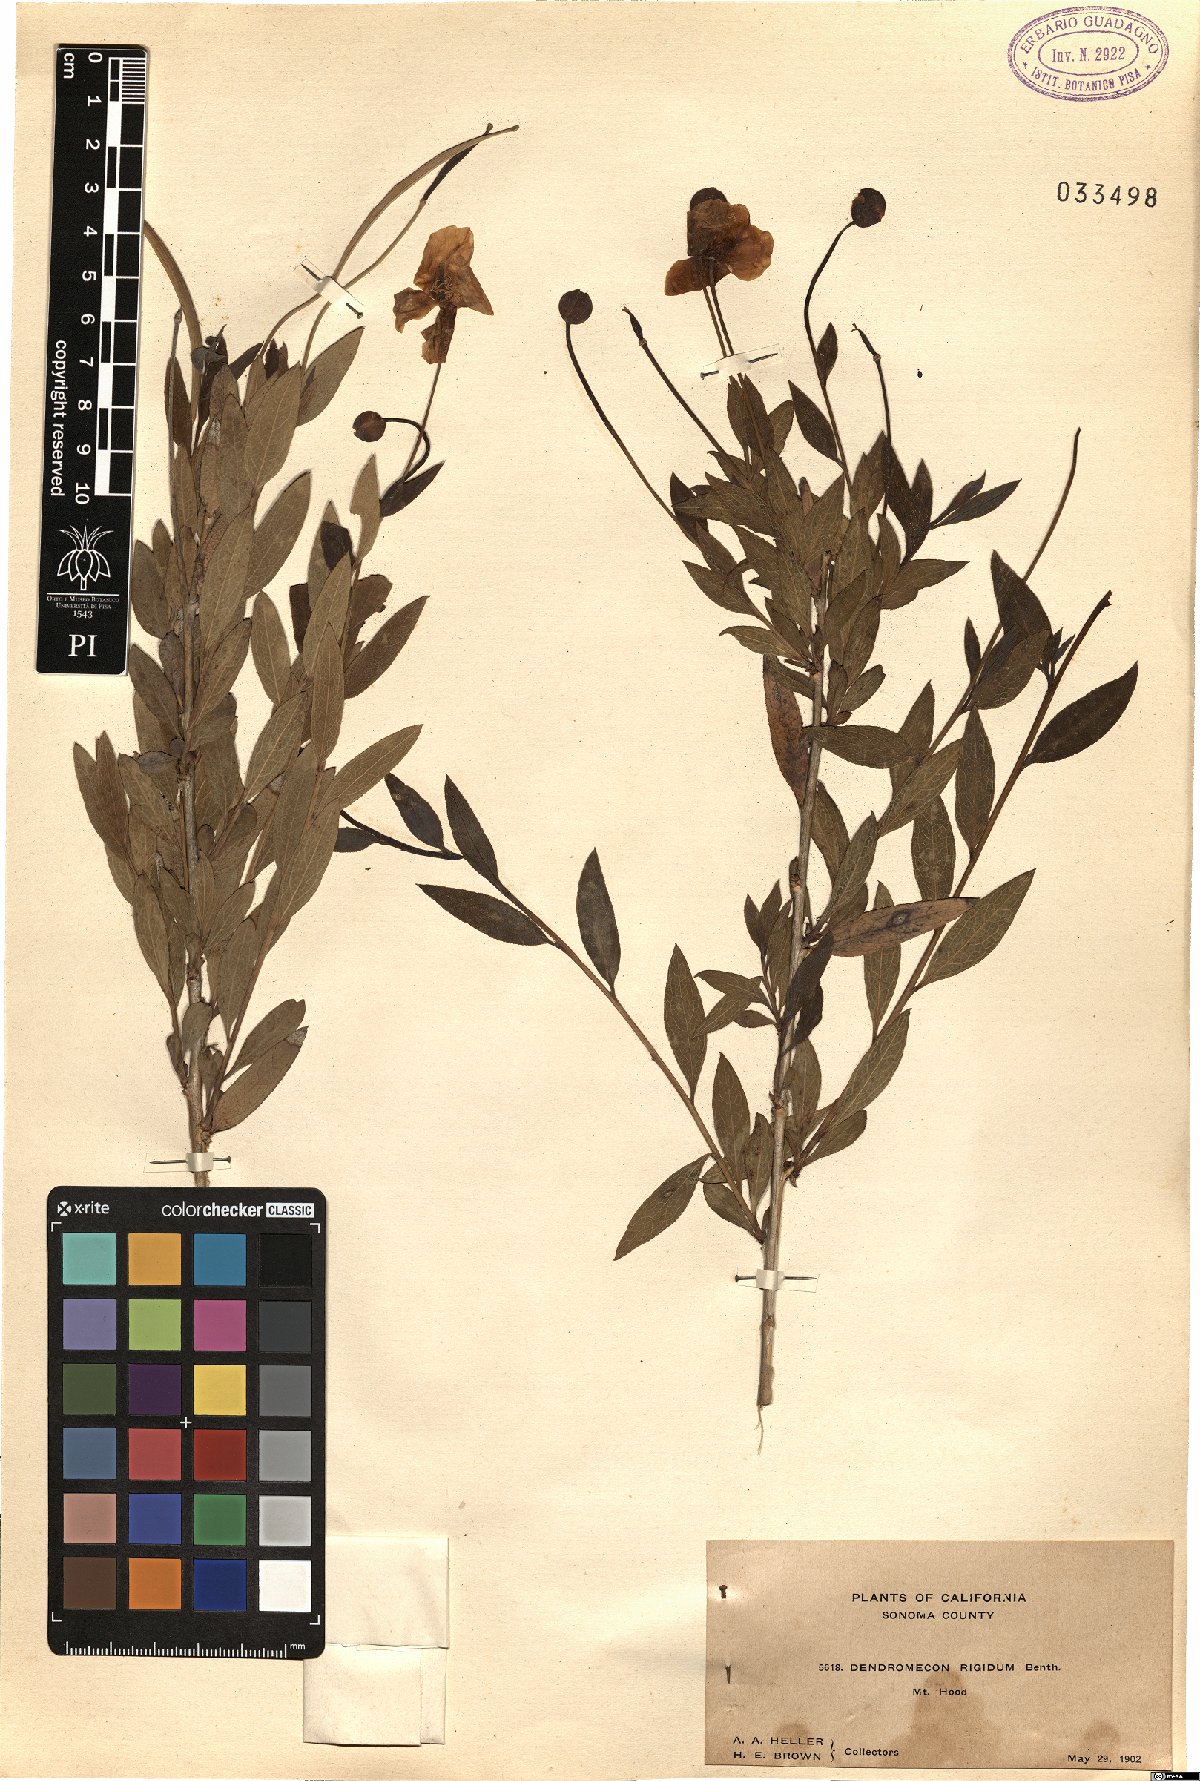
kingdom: Plantae
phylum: Tracheophyta
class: Magnoliopsida
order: Ranunculales
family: Papaveraceae
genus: Dendromecon
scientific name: Dendromecon rigida
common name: Tree poppy
